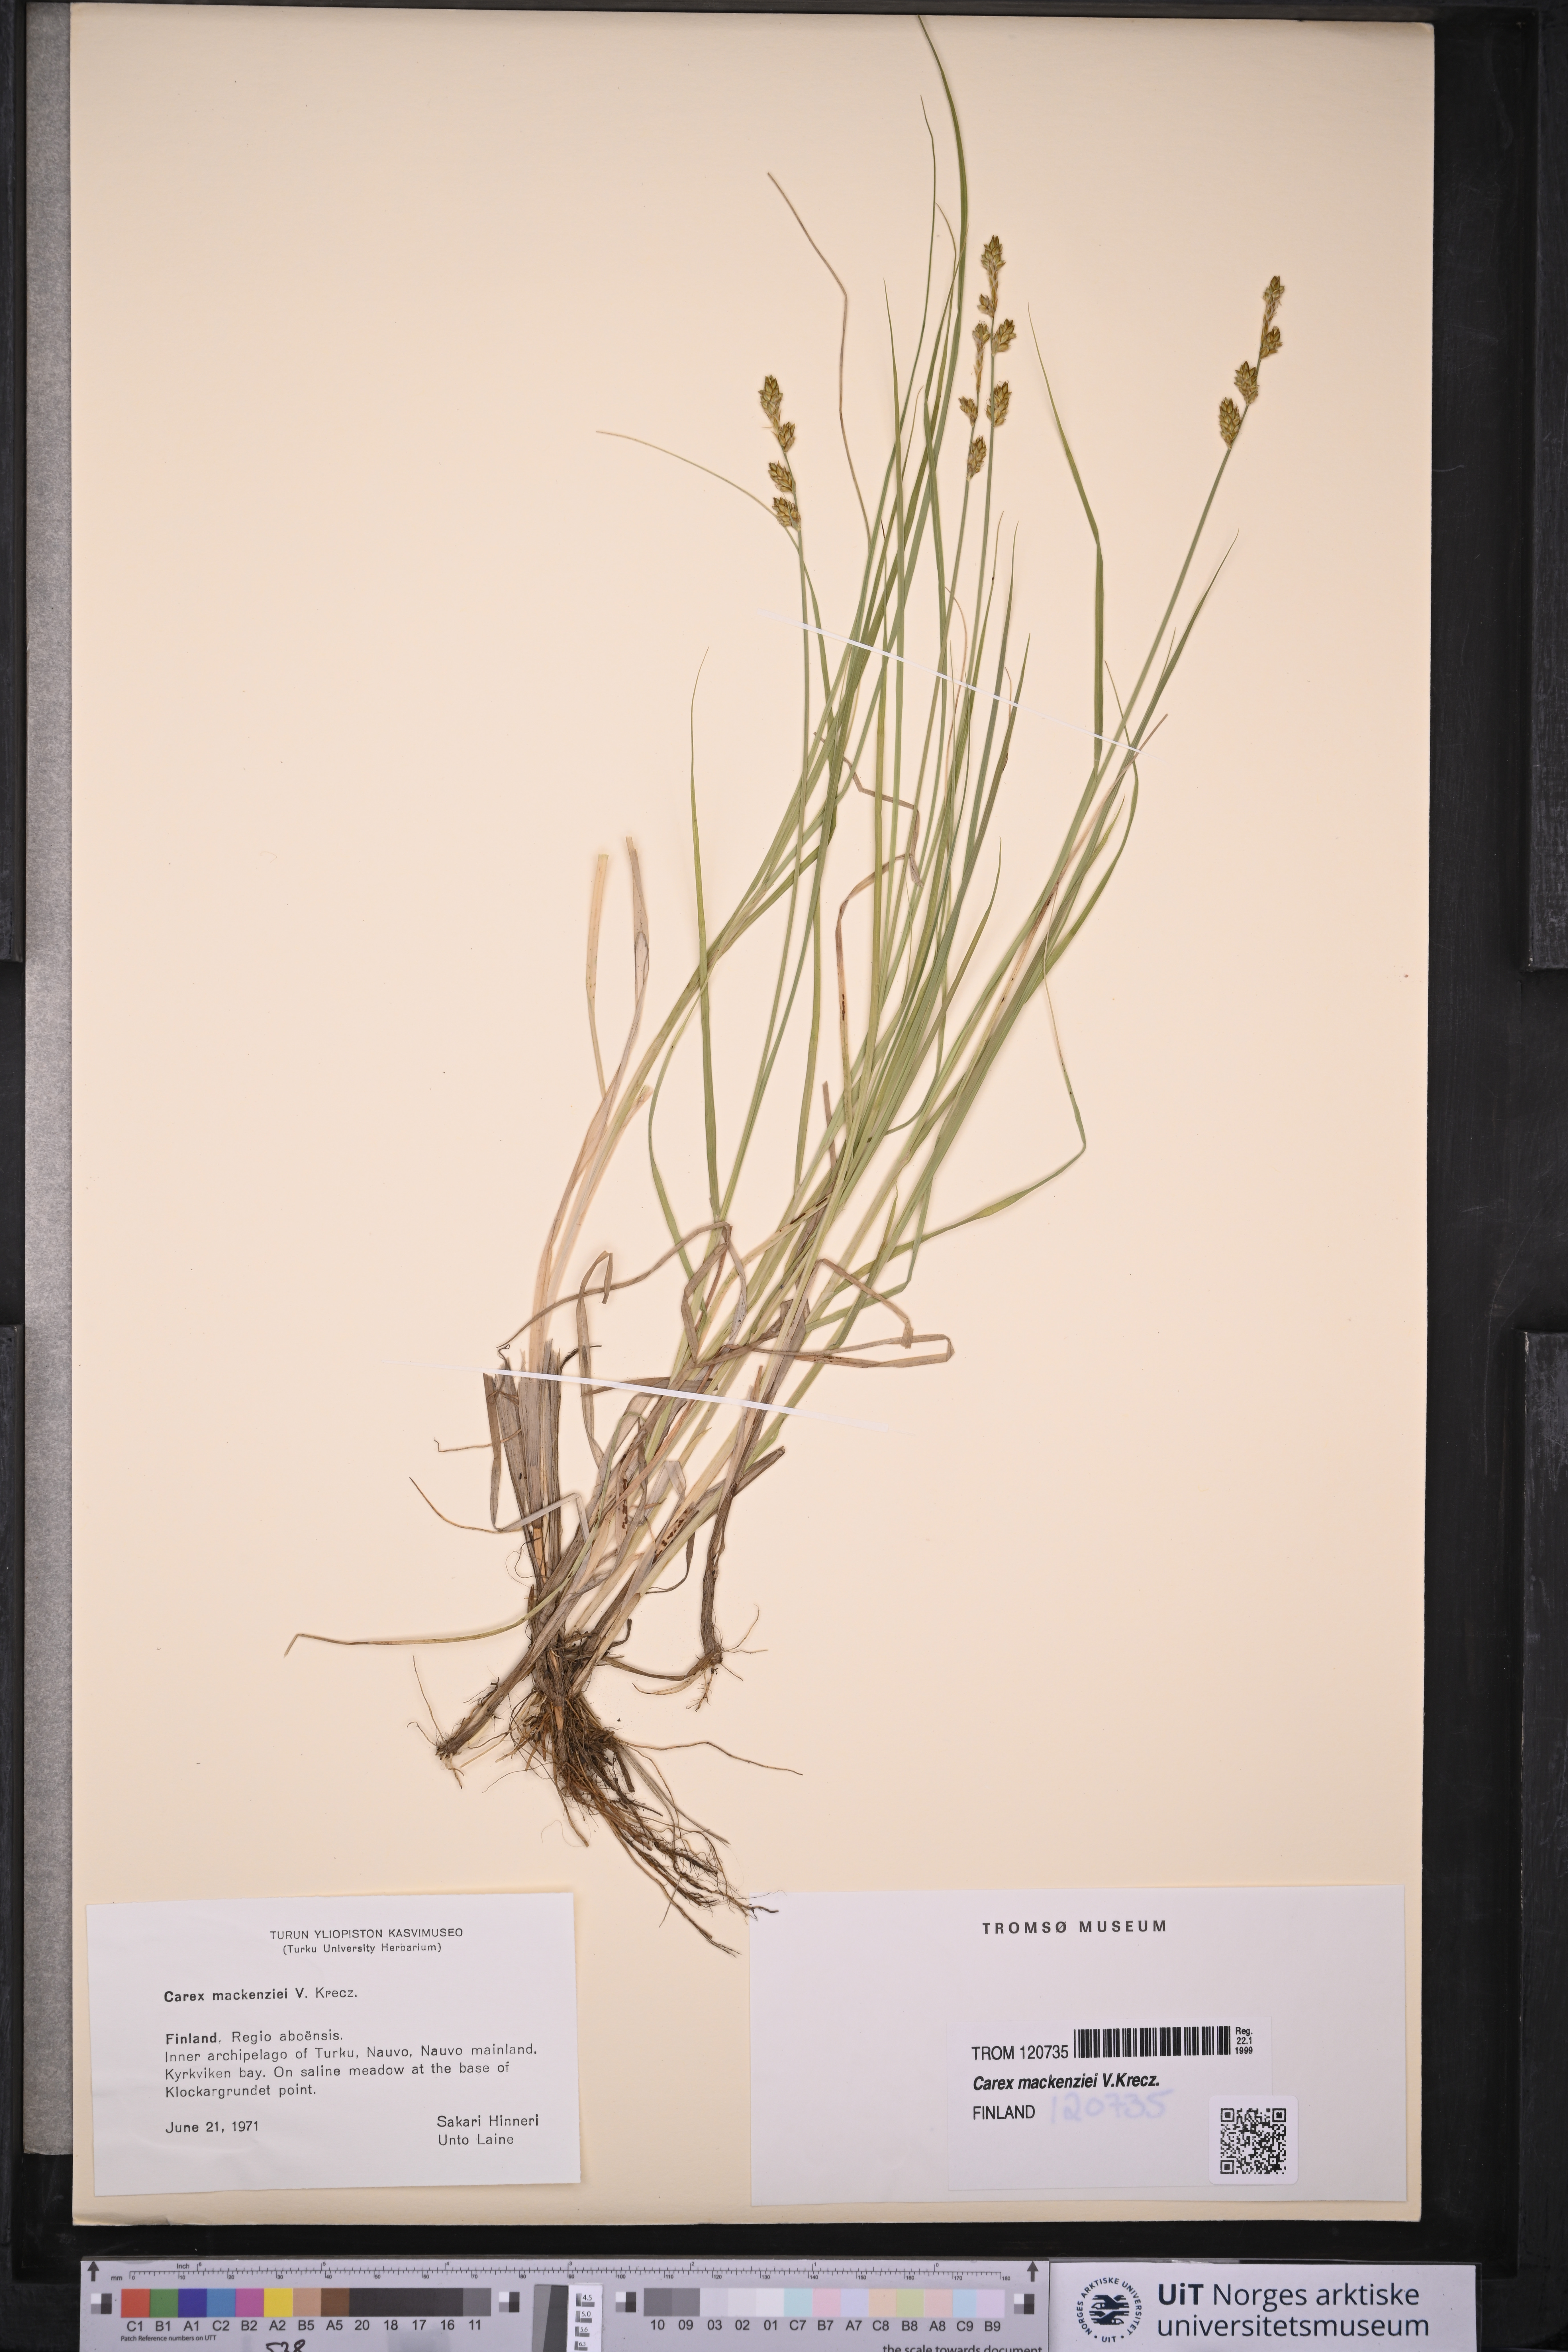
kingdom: Plantae
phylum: Tracheophyta
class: Liliopsida
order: Poales
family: Cyperaceae
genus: Carex
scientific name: Carex mackenziei
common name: Mackenzie's sedge
